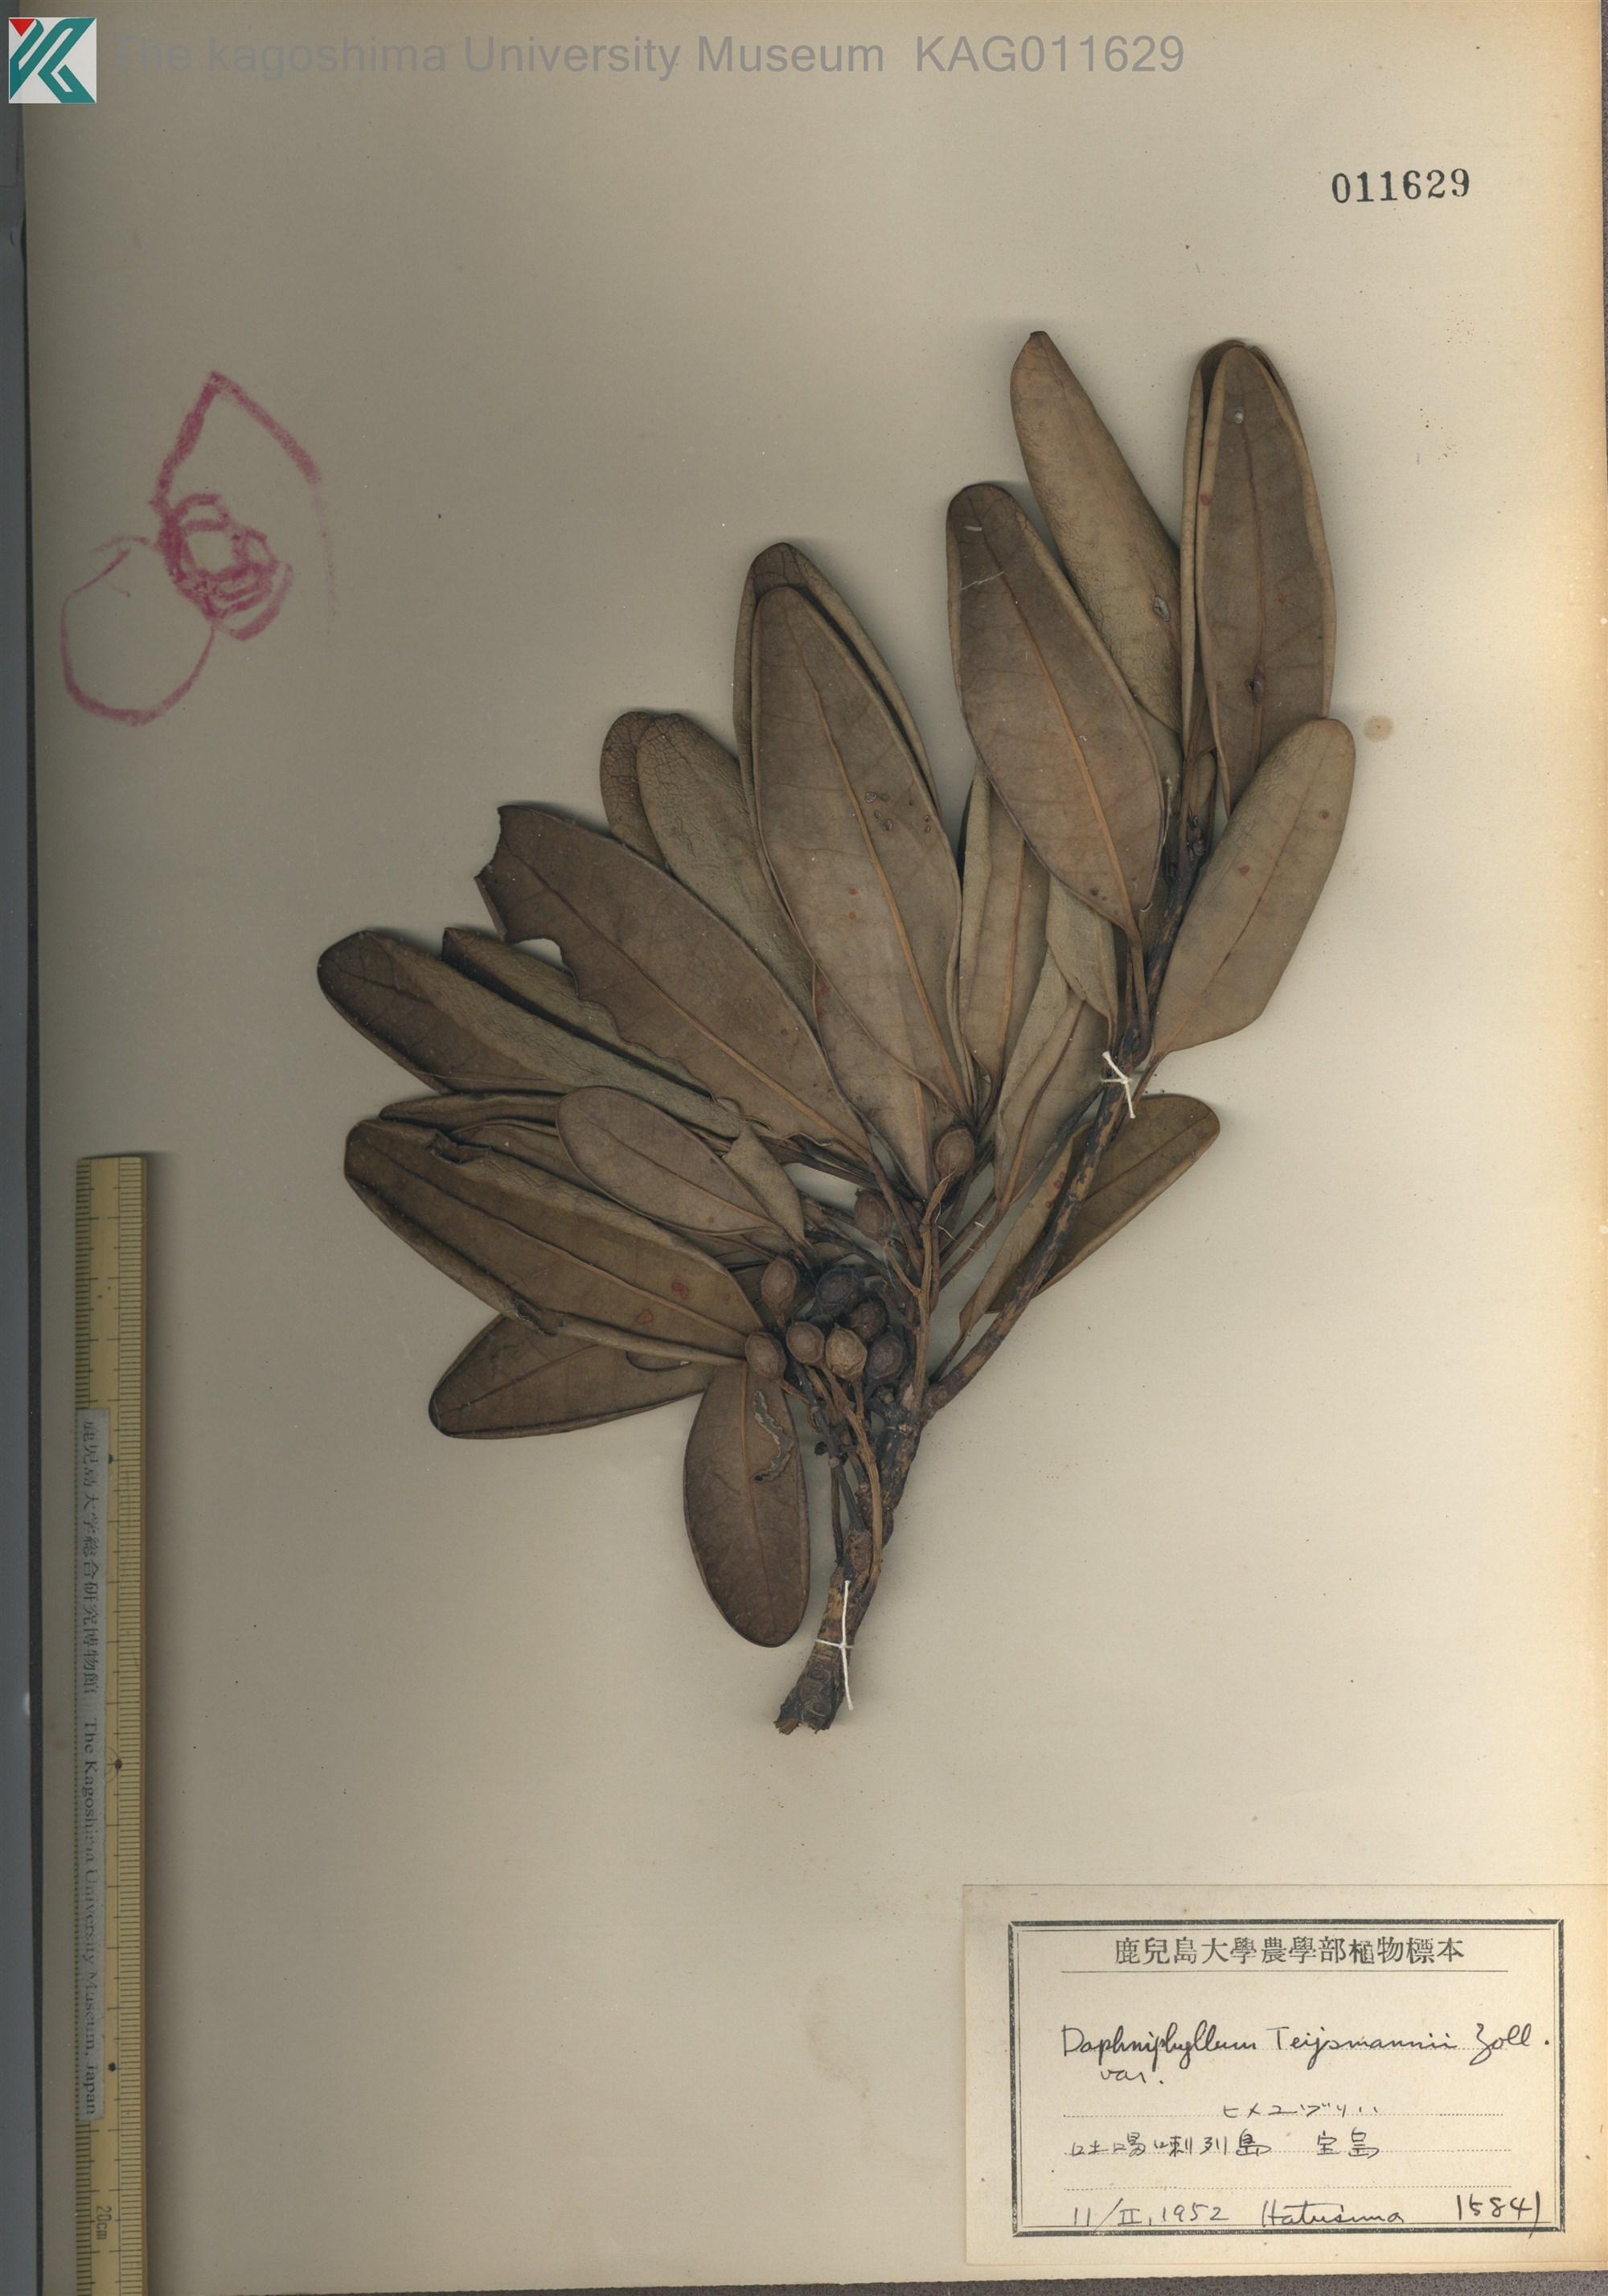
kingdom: Plantae
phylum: Tracheophyta
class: Magnoliopsida
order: Saxifragales
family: Daphniphyllaceae
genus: Daphniphyllum
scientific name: Daphniphyllum teijsmannii
